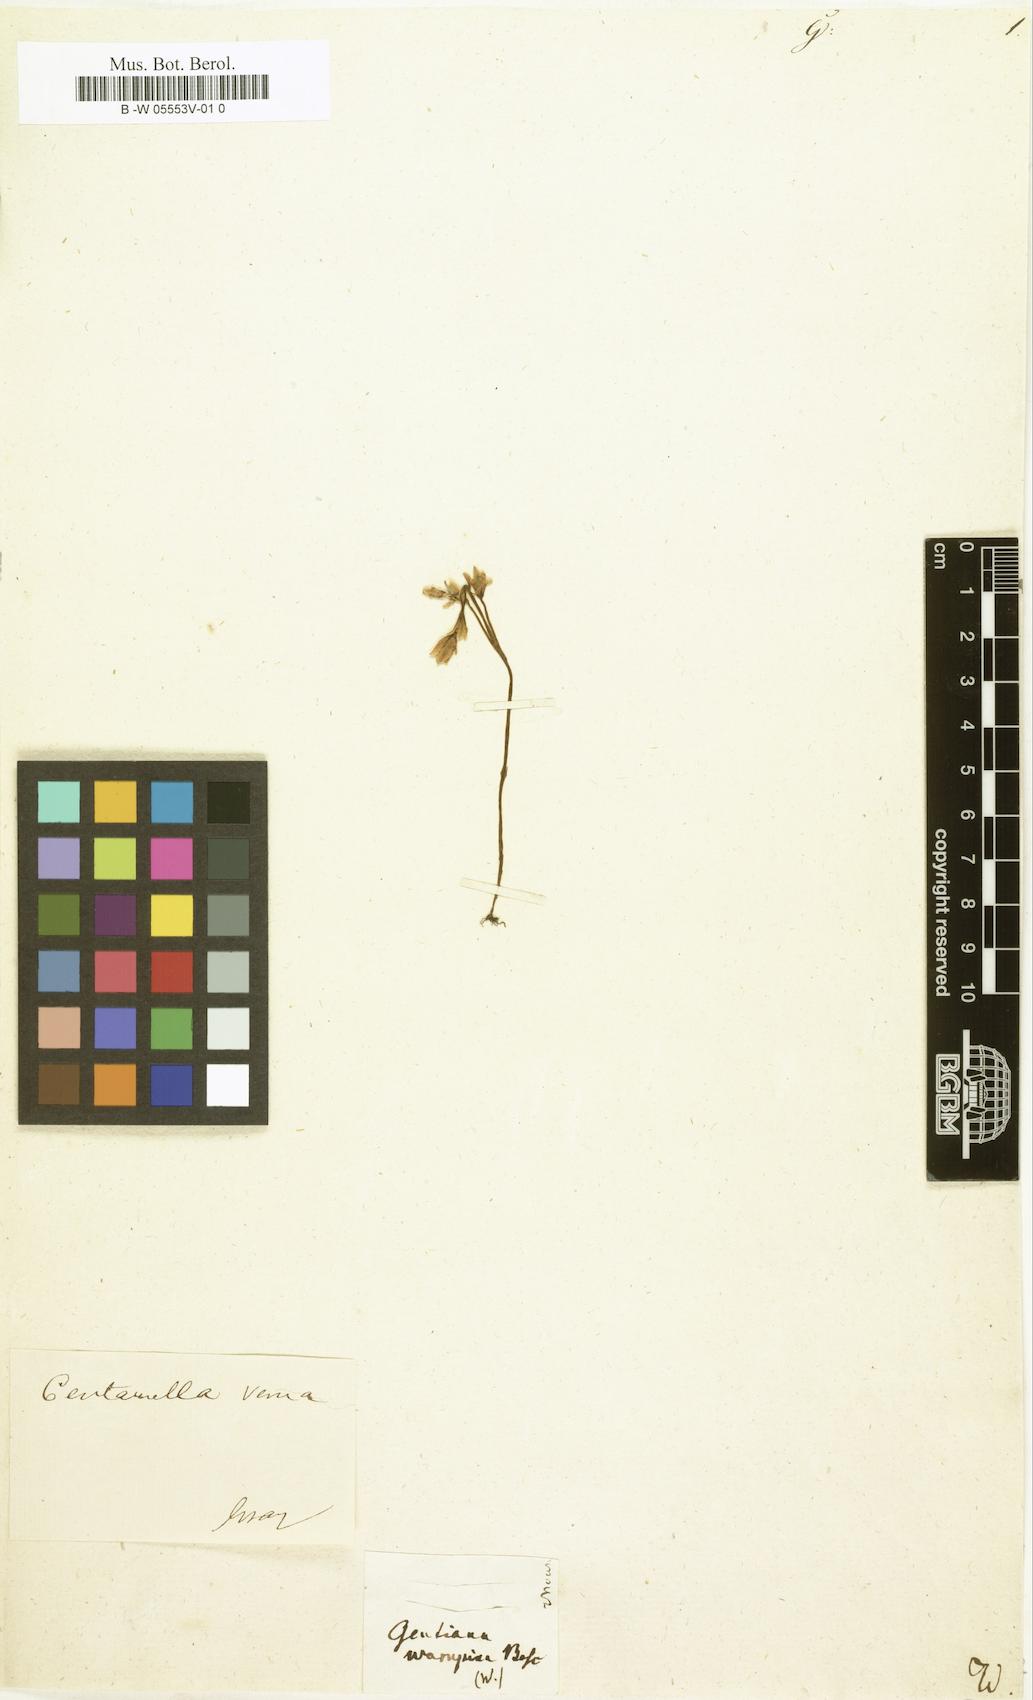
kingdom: Plantae
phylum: Tracheophyta
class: Magnoliopsida
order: Gentianales
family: Gentianaceae
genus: Gentiana
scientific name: Gentiana
